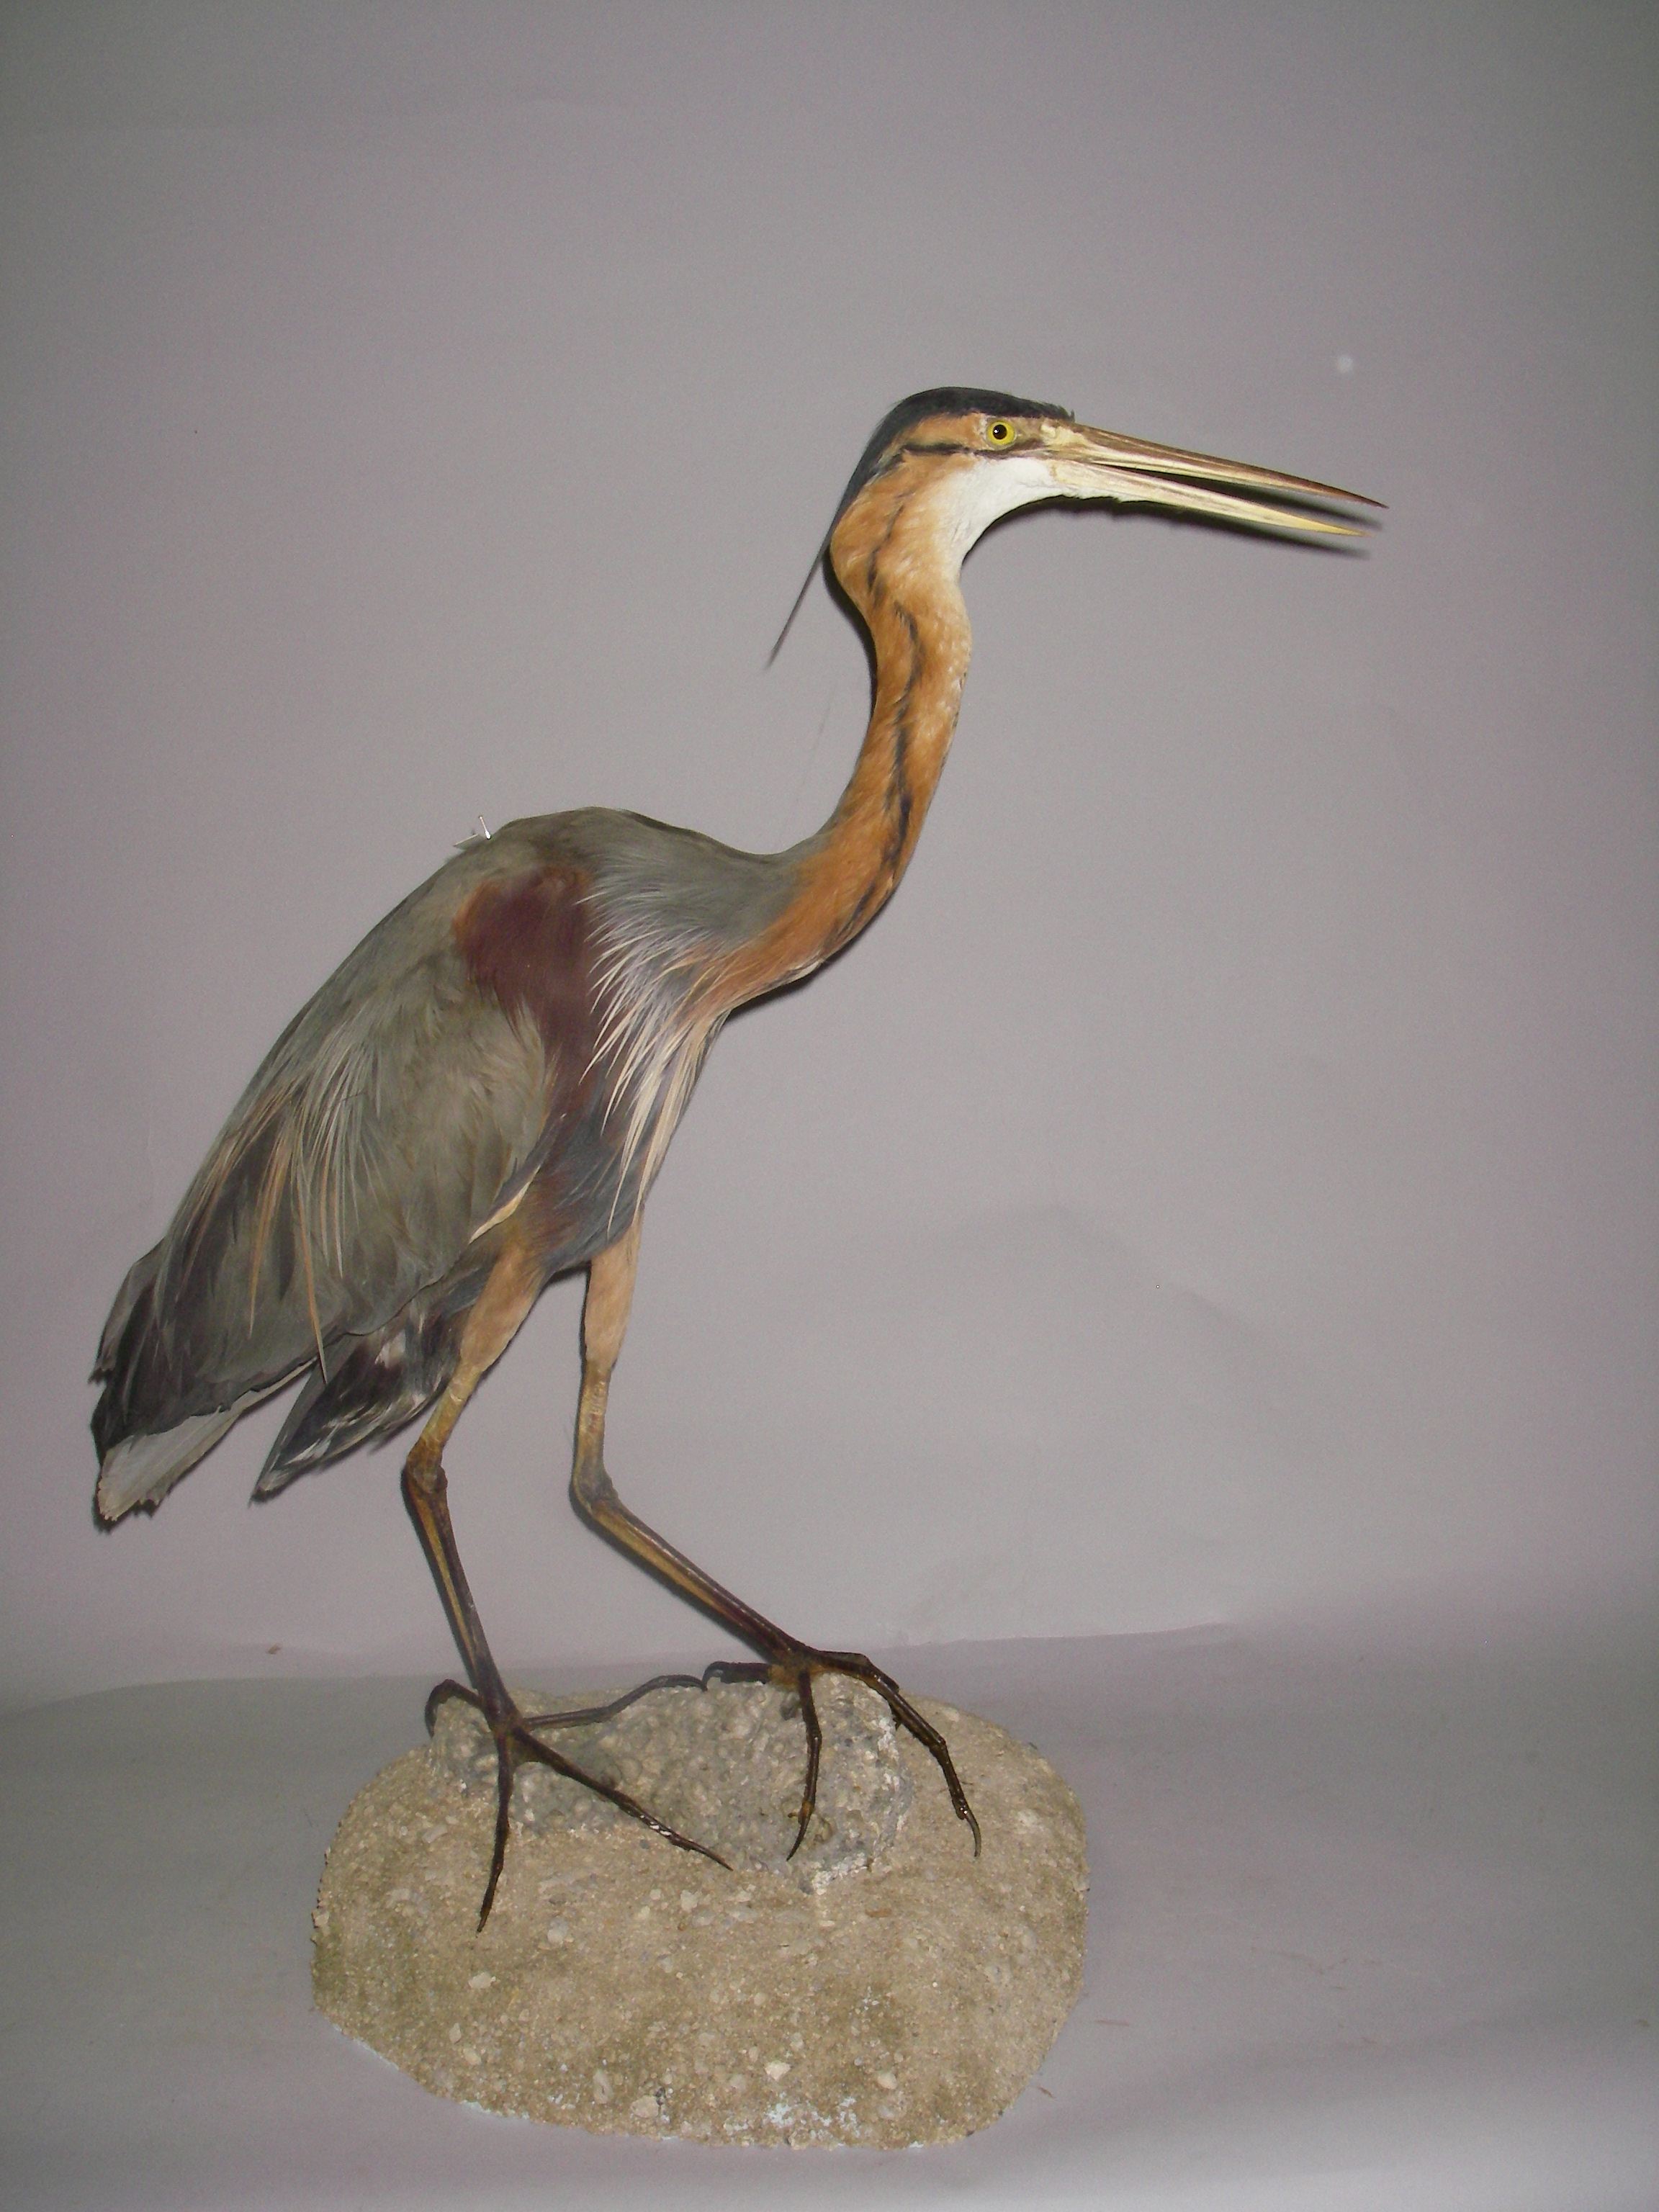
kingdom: Animalia
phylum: Chordata
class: Aves
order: Pelecaniformes
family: Ardeidae
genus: Ardea
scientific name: Ardea purpurea
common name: Purple heron
